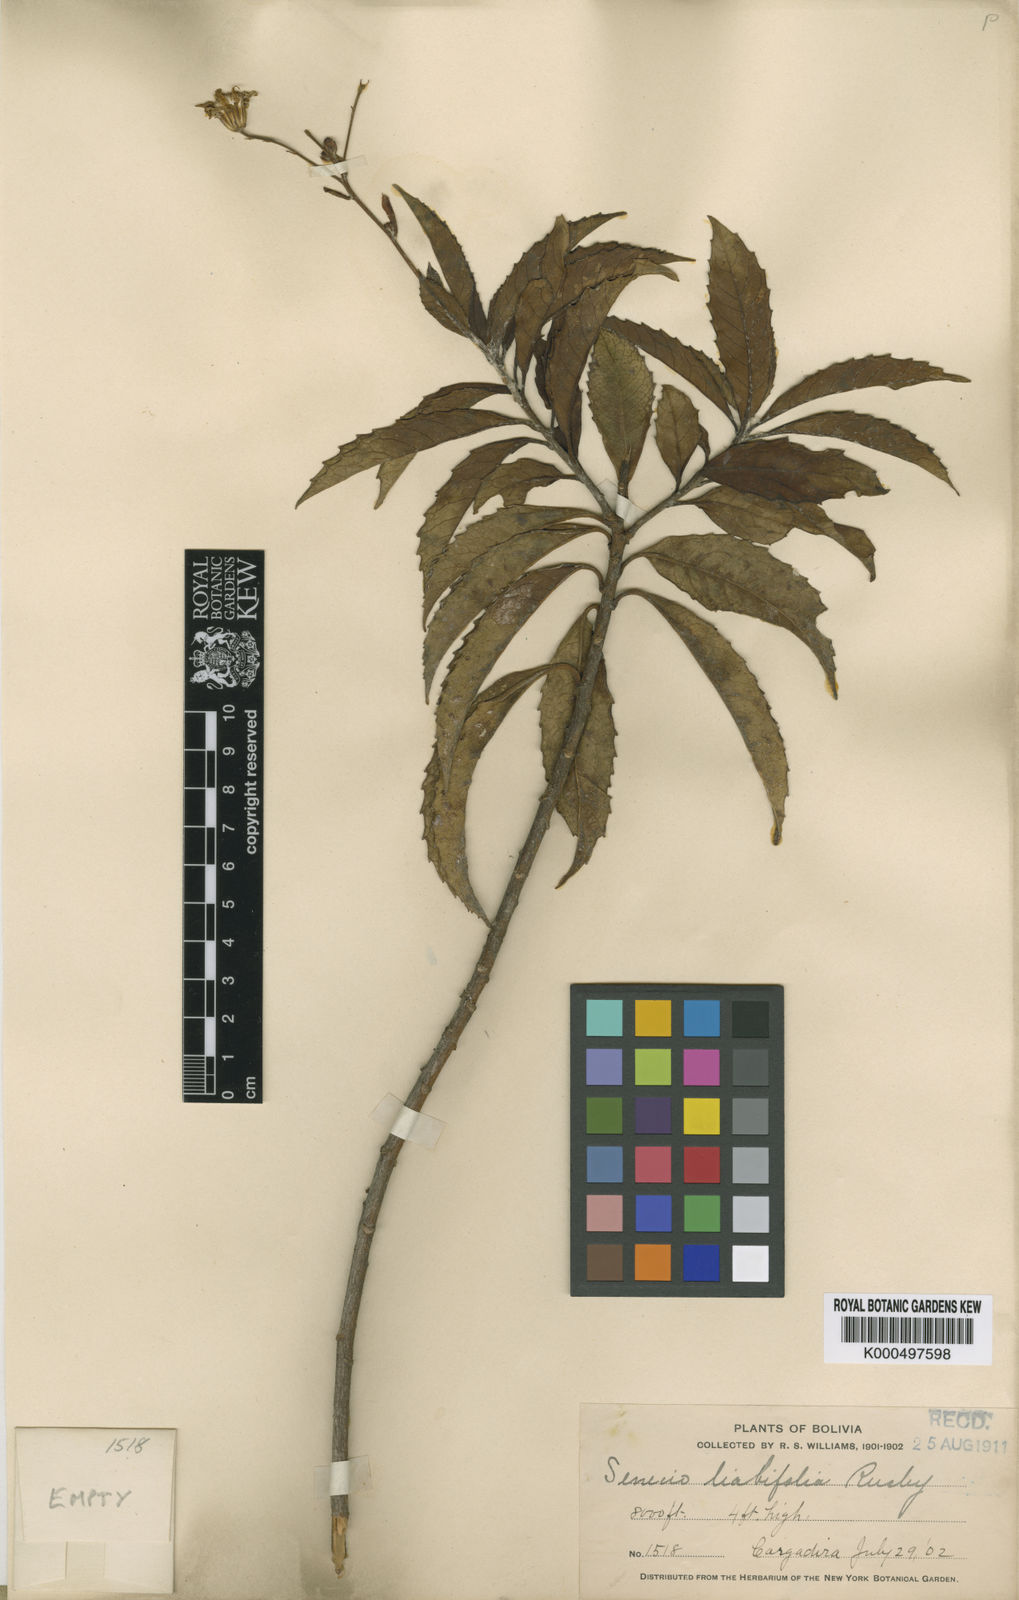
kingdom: Plantae
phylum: Tracheophyta
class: Magnoliopsida
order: Asterales
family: Asteraceae
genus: Dendrophorbium
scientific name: Dendrophorbium curvidens
